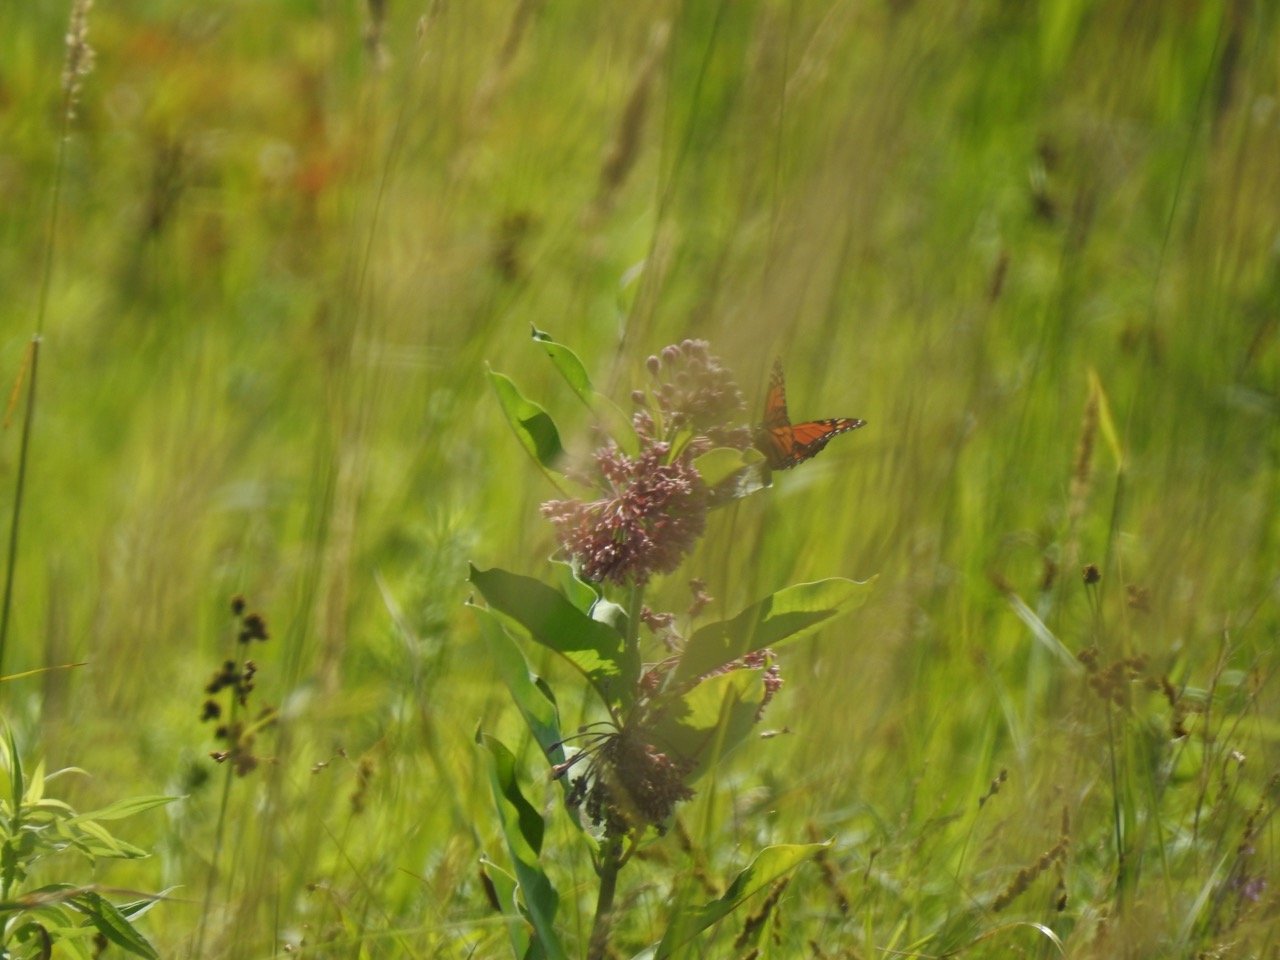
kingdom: Animalia
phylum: Arthropoda
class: Insecta
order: Lepidoptera
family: Nymphalidae
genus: Danaus
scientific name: Danaus plexippus
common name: Monarch
